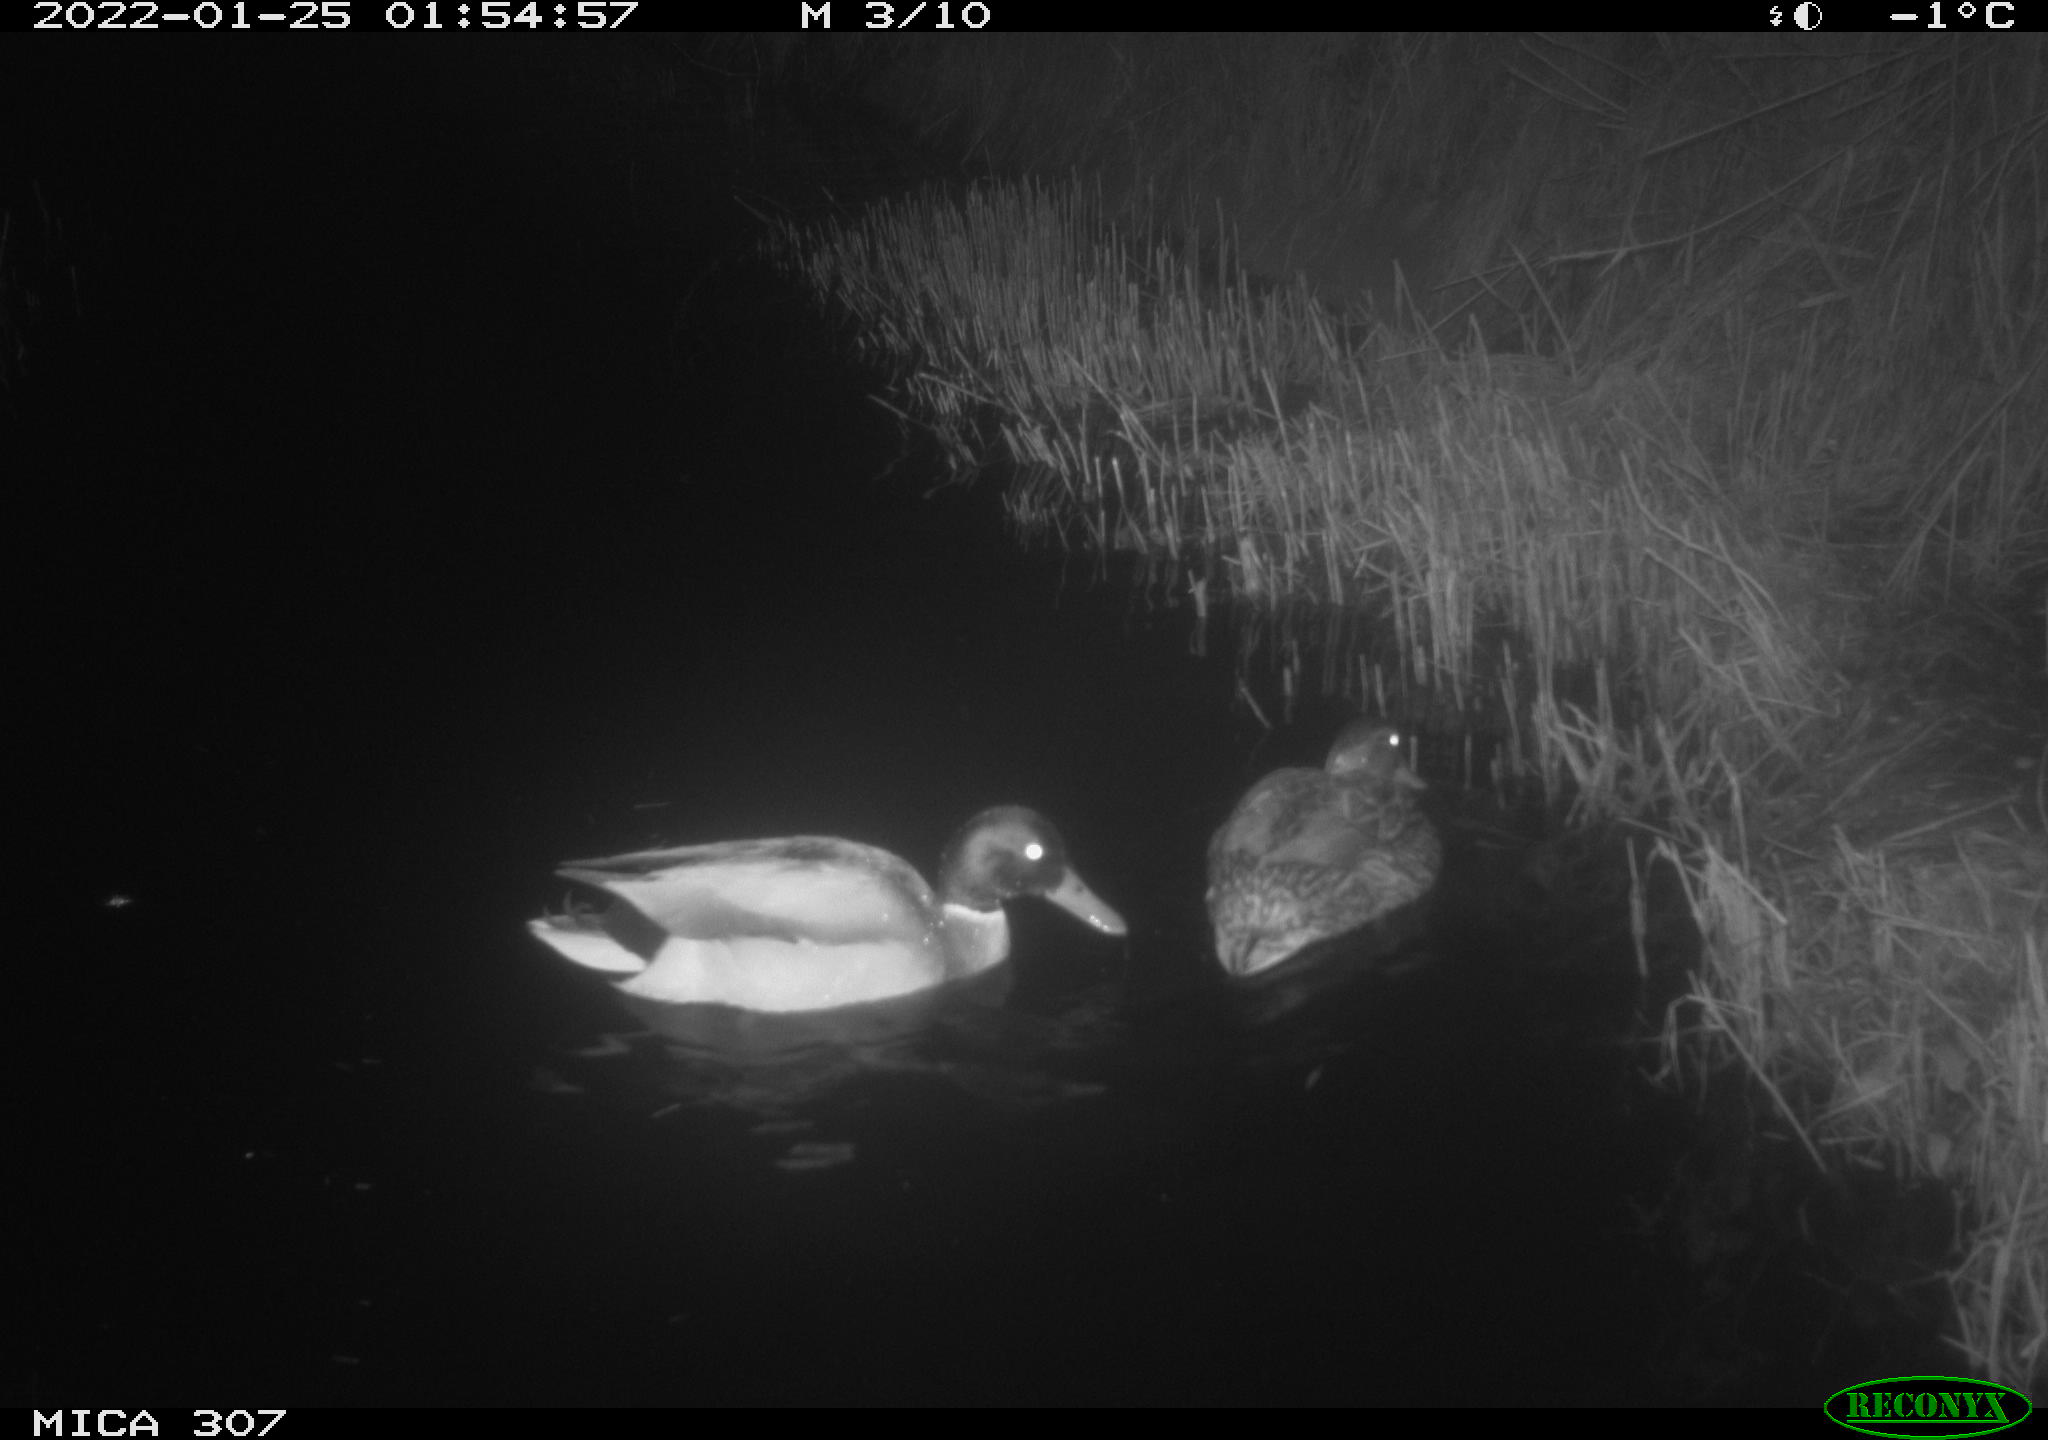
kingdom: Animalia
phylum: Chordata
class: Aves
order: Anseriformes
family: Anatidae
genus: Anas
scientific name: Anas platyrhynchos
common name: Mallard
